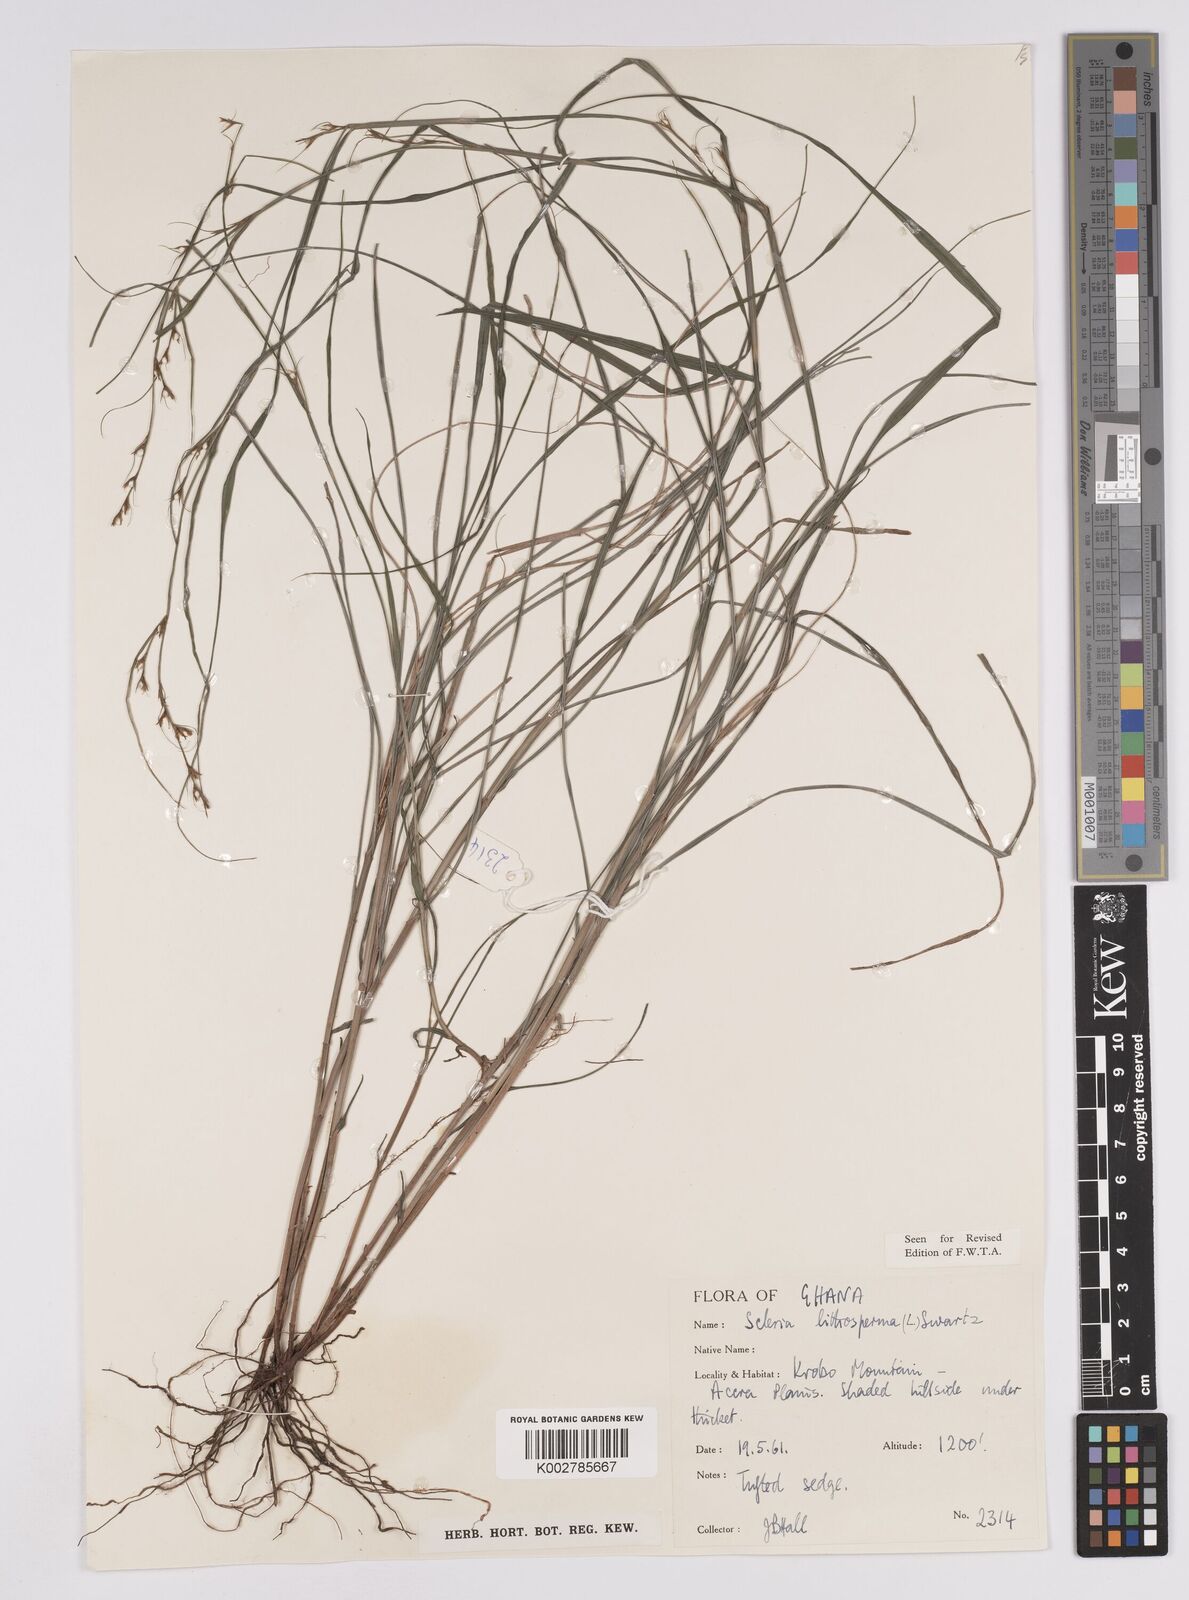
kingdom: Plantae
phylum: Tracheophyta
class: Liliopsida
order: Poales
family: Cyperaceae
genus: Scleria
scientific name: Scleria lithosperma
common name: Florida keys nut-rush
